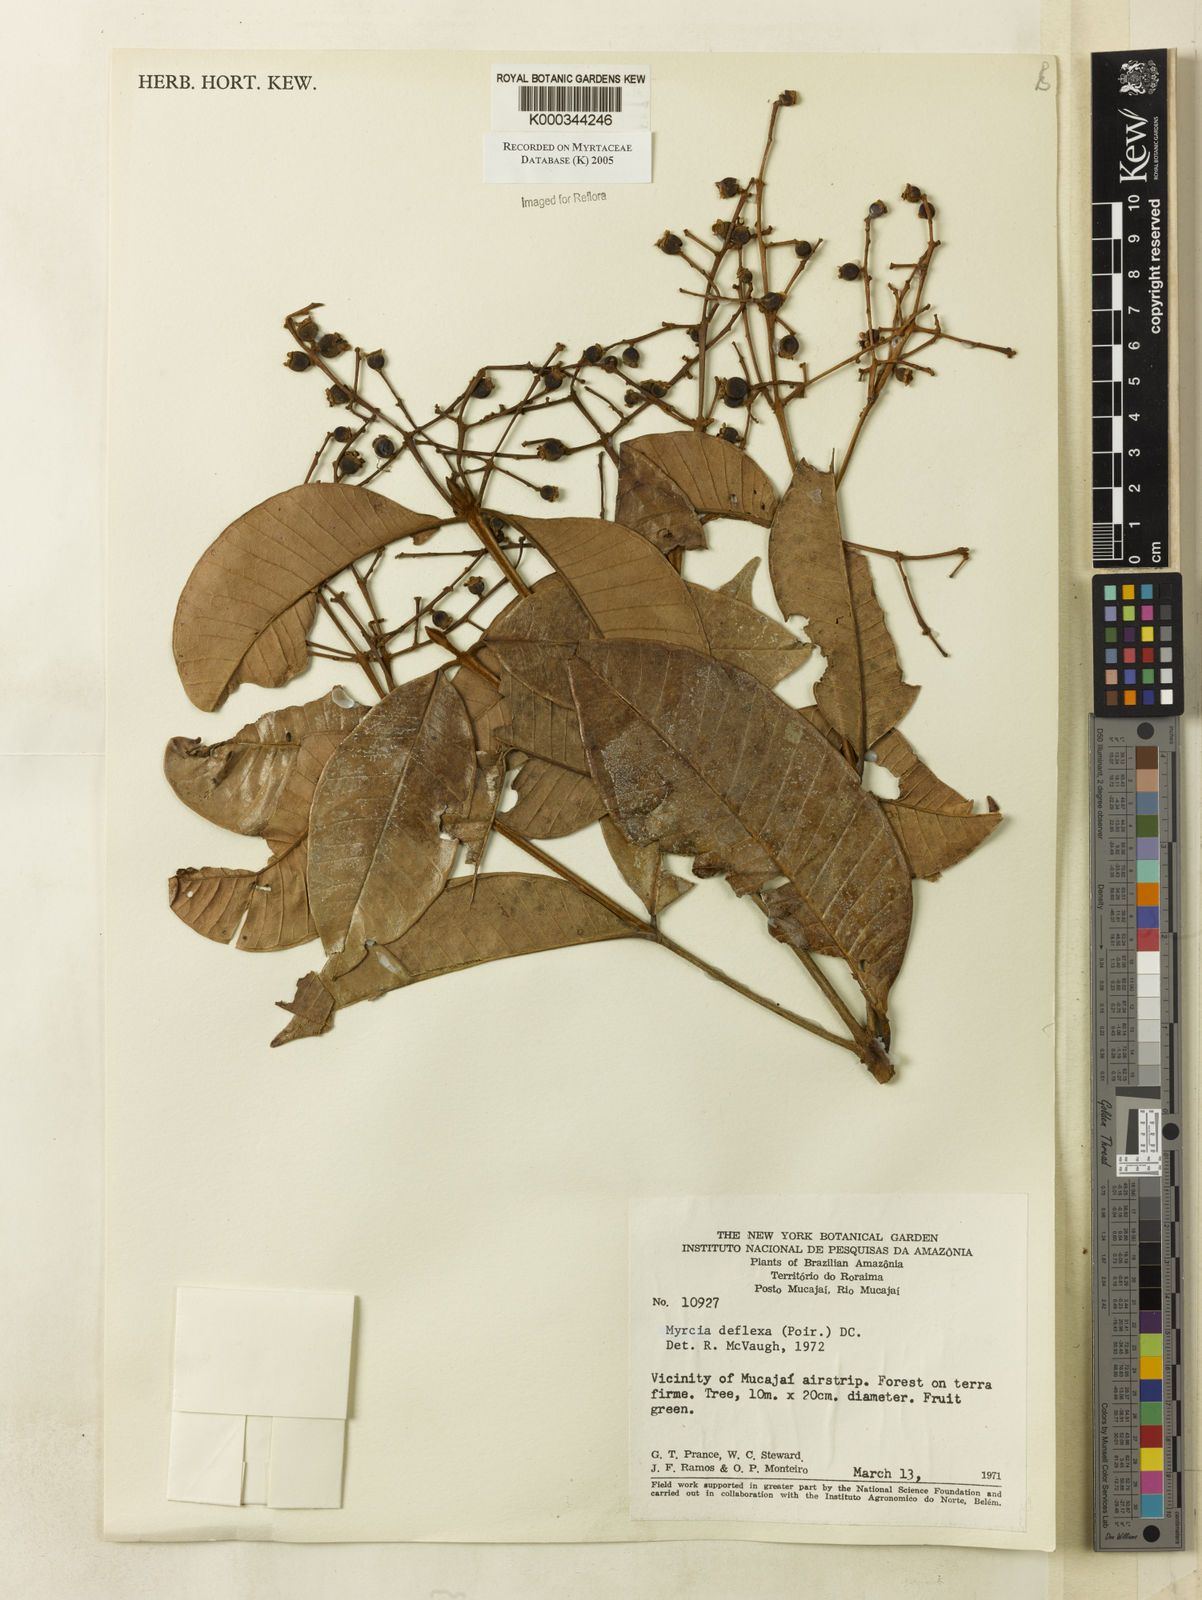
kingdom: Plantae
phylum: Tracheophyta
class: Magnoliopsida
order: Myrtales
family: Myrtaceae
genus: Myrcia
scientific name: Myrcia deflexa
